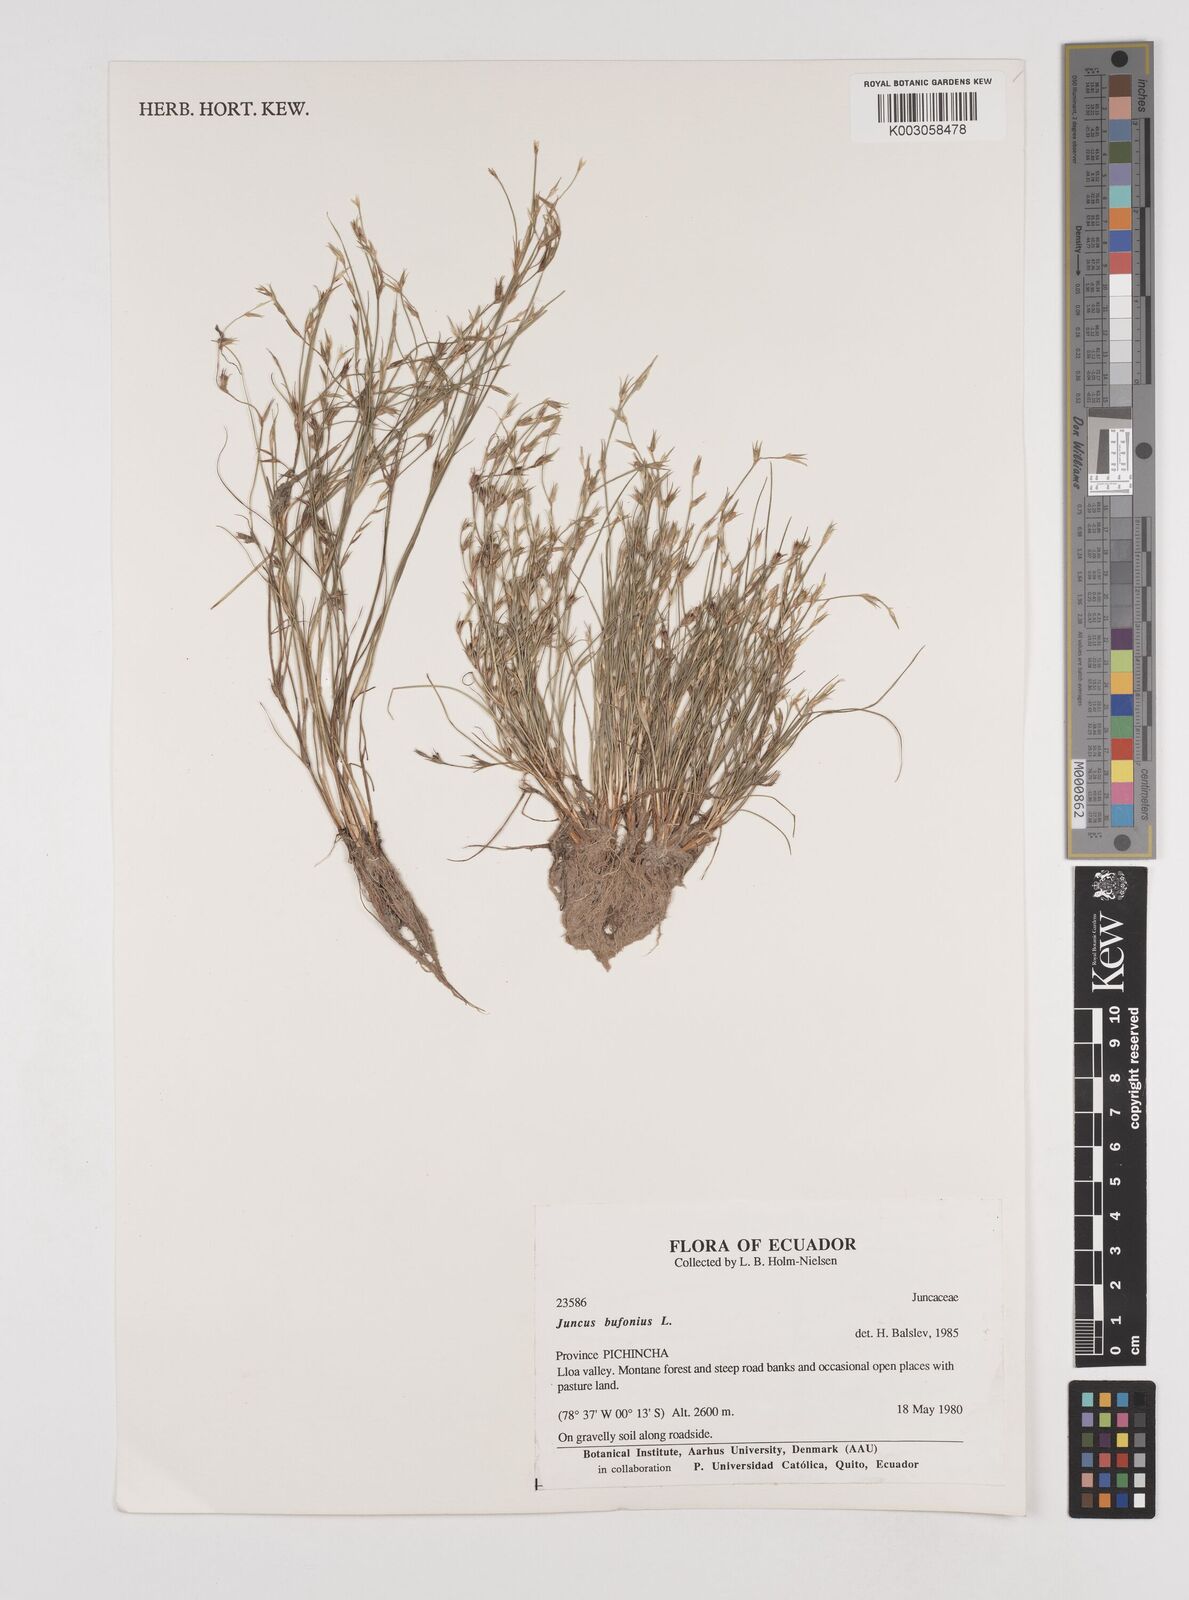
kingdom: Plantae
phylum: Tracheophyta
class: Liliopsida
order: Poales
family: Juncaceae
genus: Juncus
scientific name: Juncus bufonius
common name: Toad rush
